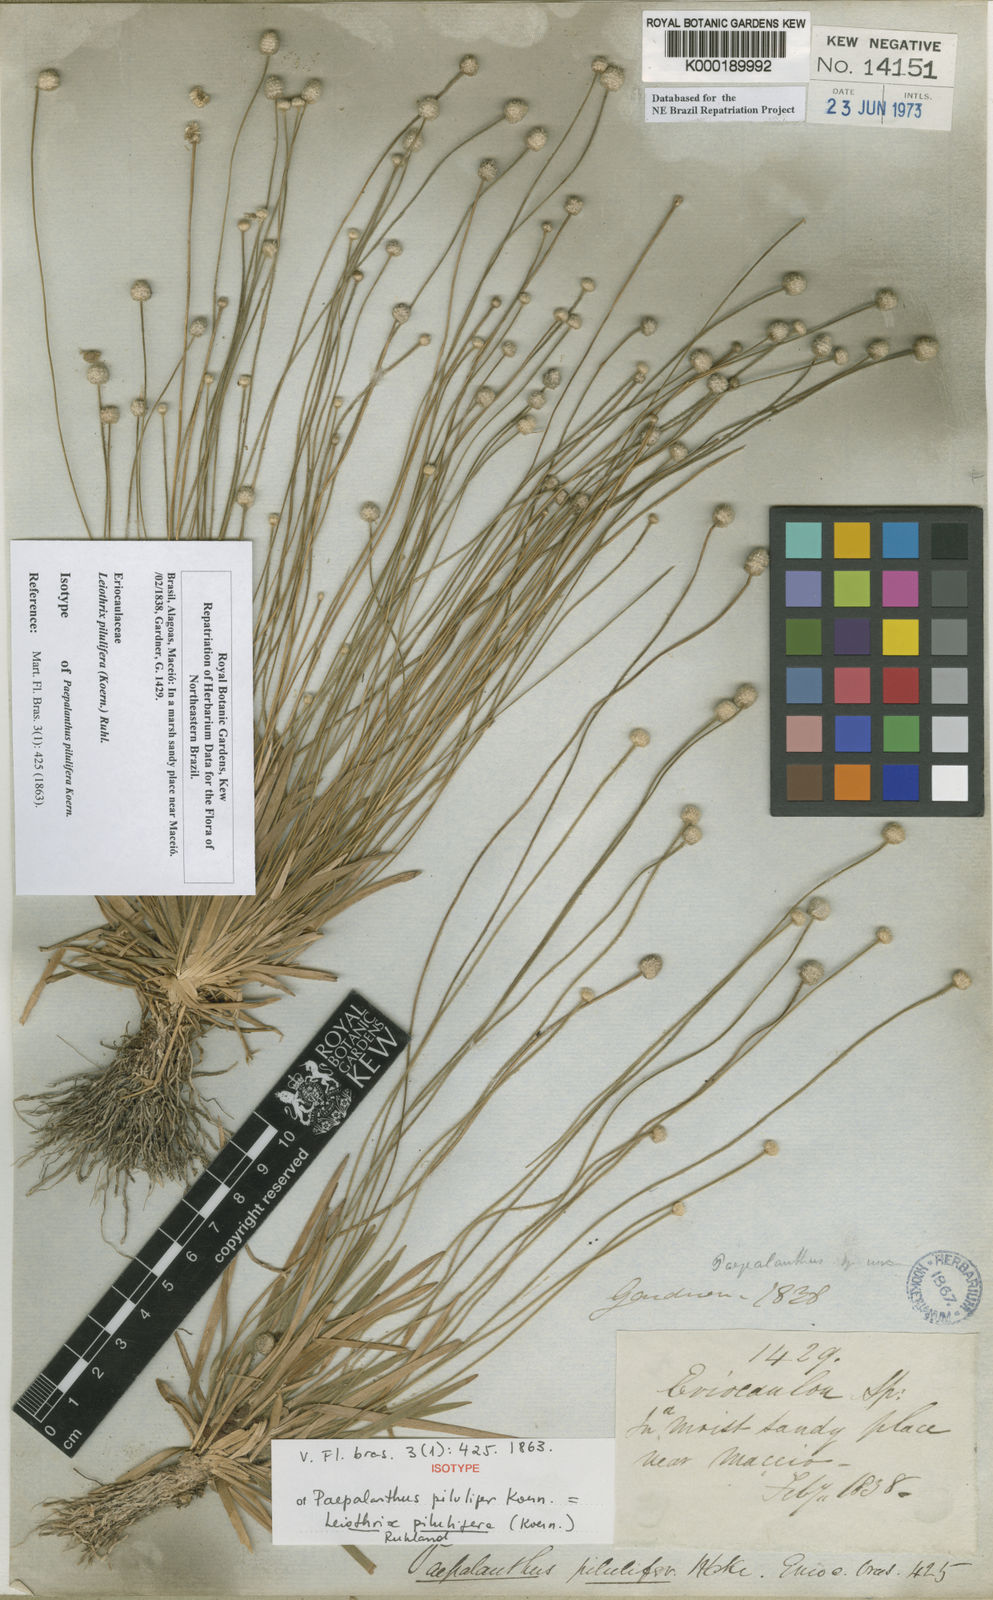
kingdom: Plantae
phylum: Tracheophyta
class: Liliopsida
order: Poales
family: Eriocaulaceae
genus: Leiothrix
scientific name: Leiothrix pilulifera
